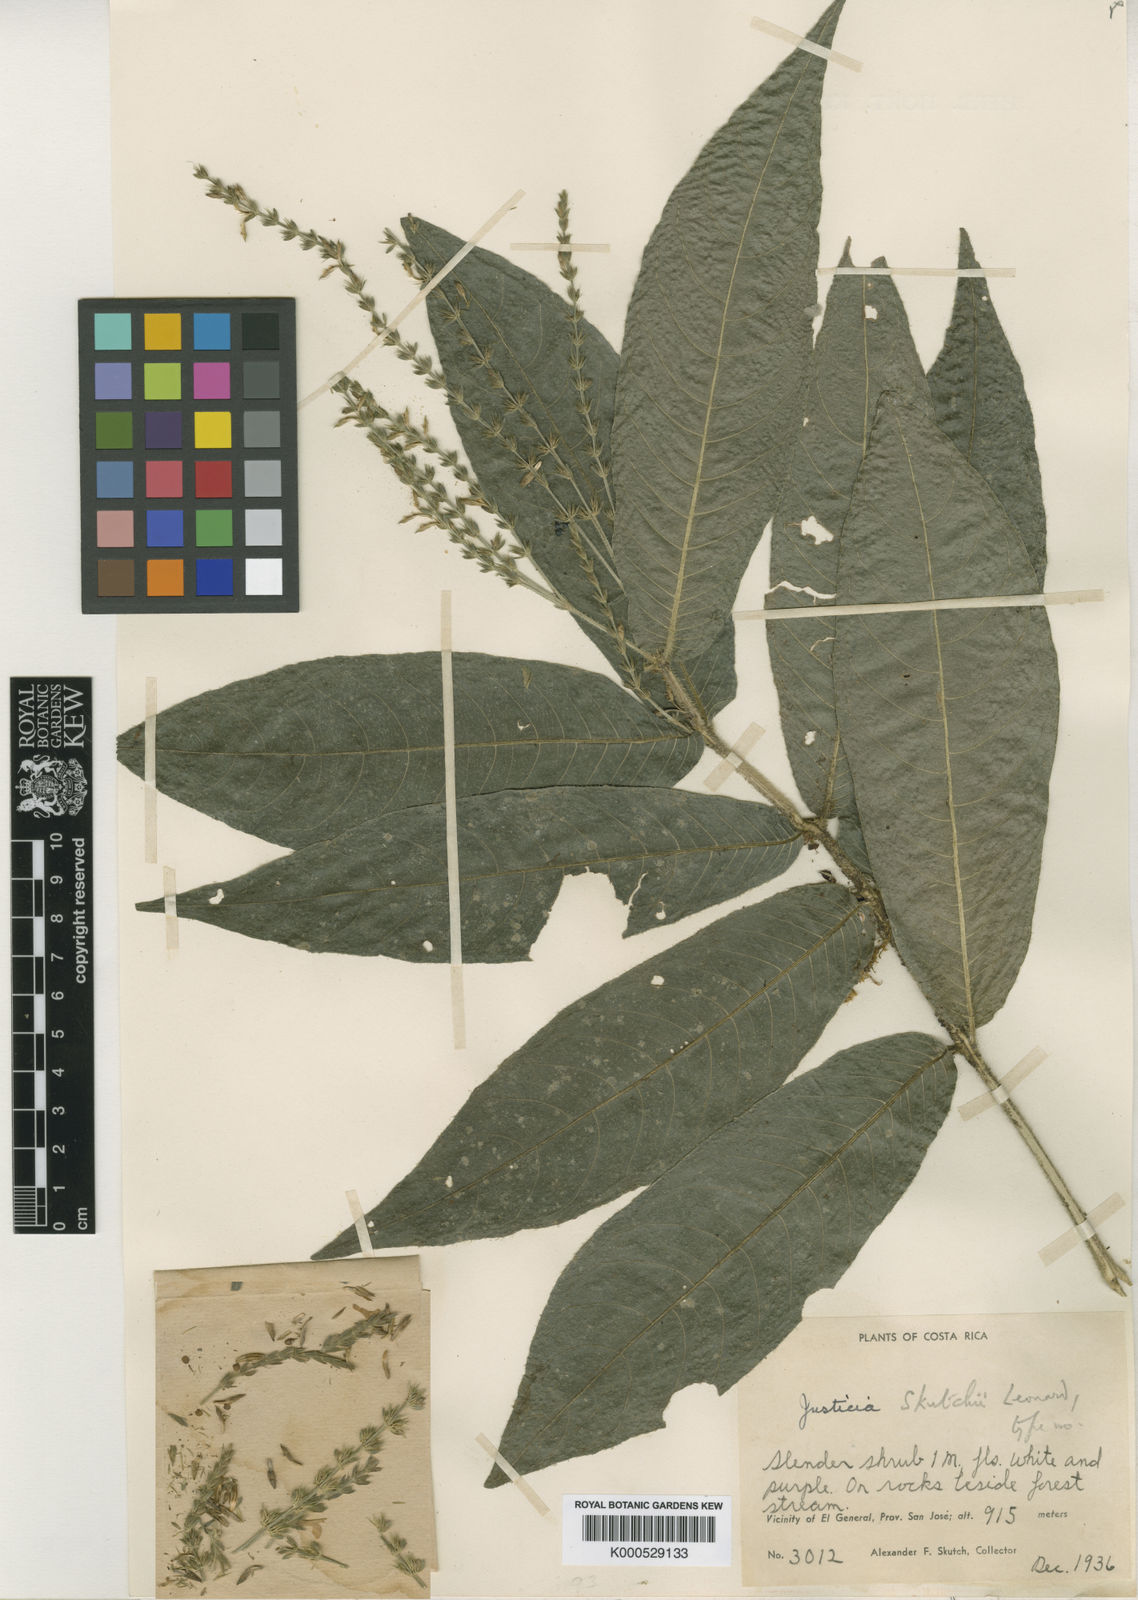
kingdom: Plantae
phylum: Tracheophyta
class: Magnoliopsida
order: Lamiales
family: Acanthaceae
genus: Justicia
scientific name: Justicia skutchii
